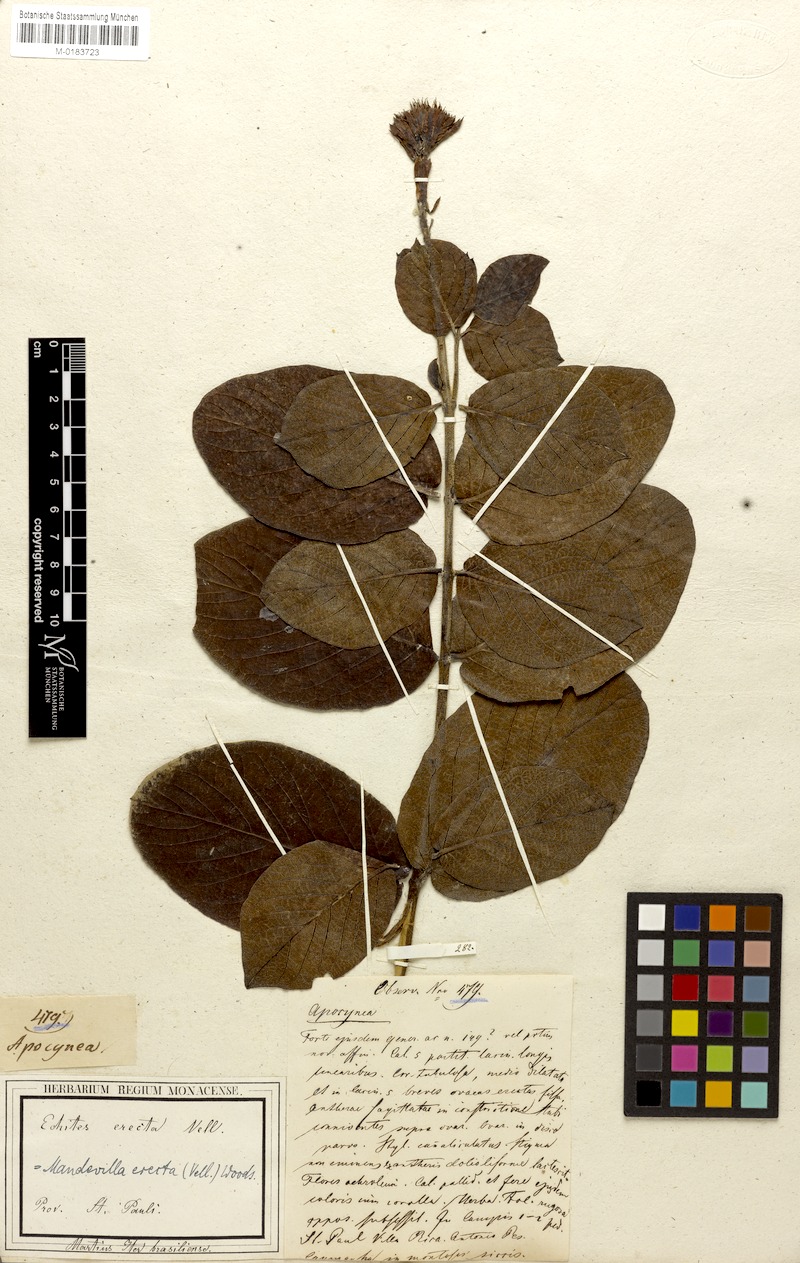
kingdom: Plantae
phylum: Tracheophyta
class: Magnoliopsida
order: Gentianales
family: Apocynaceae
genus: Mandevilla
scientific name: Mandevilla emarginata
